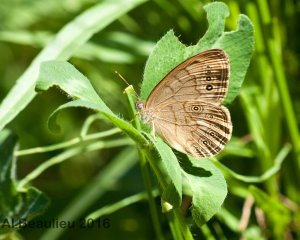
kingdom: Animalia
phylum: Arthropoda
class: Insecta
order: Lepidoptera
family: Nymphalidae
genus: Lethe
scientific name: Lethe eurydice
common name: Eyed Brown
